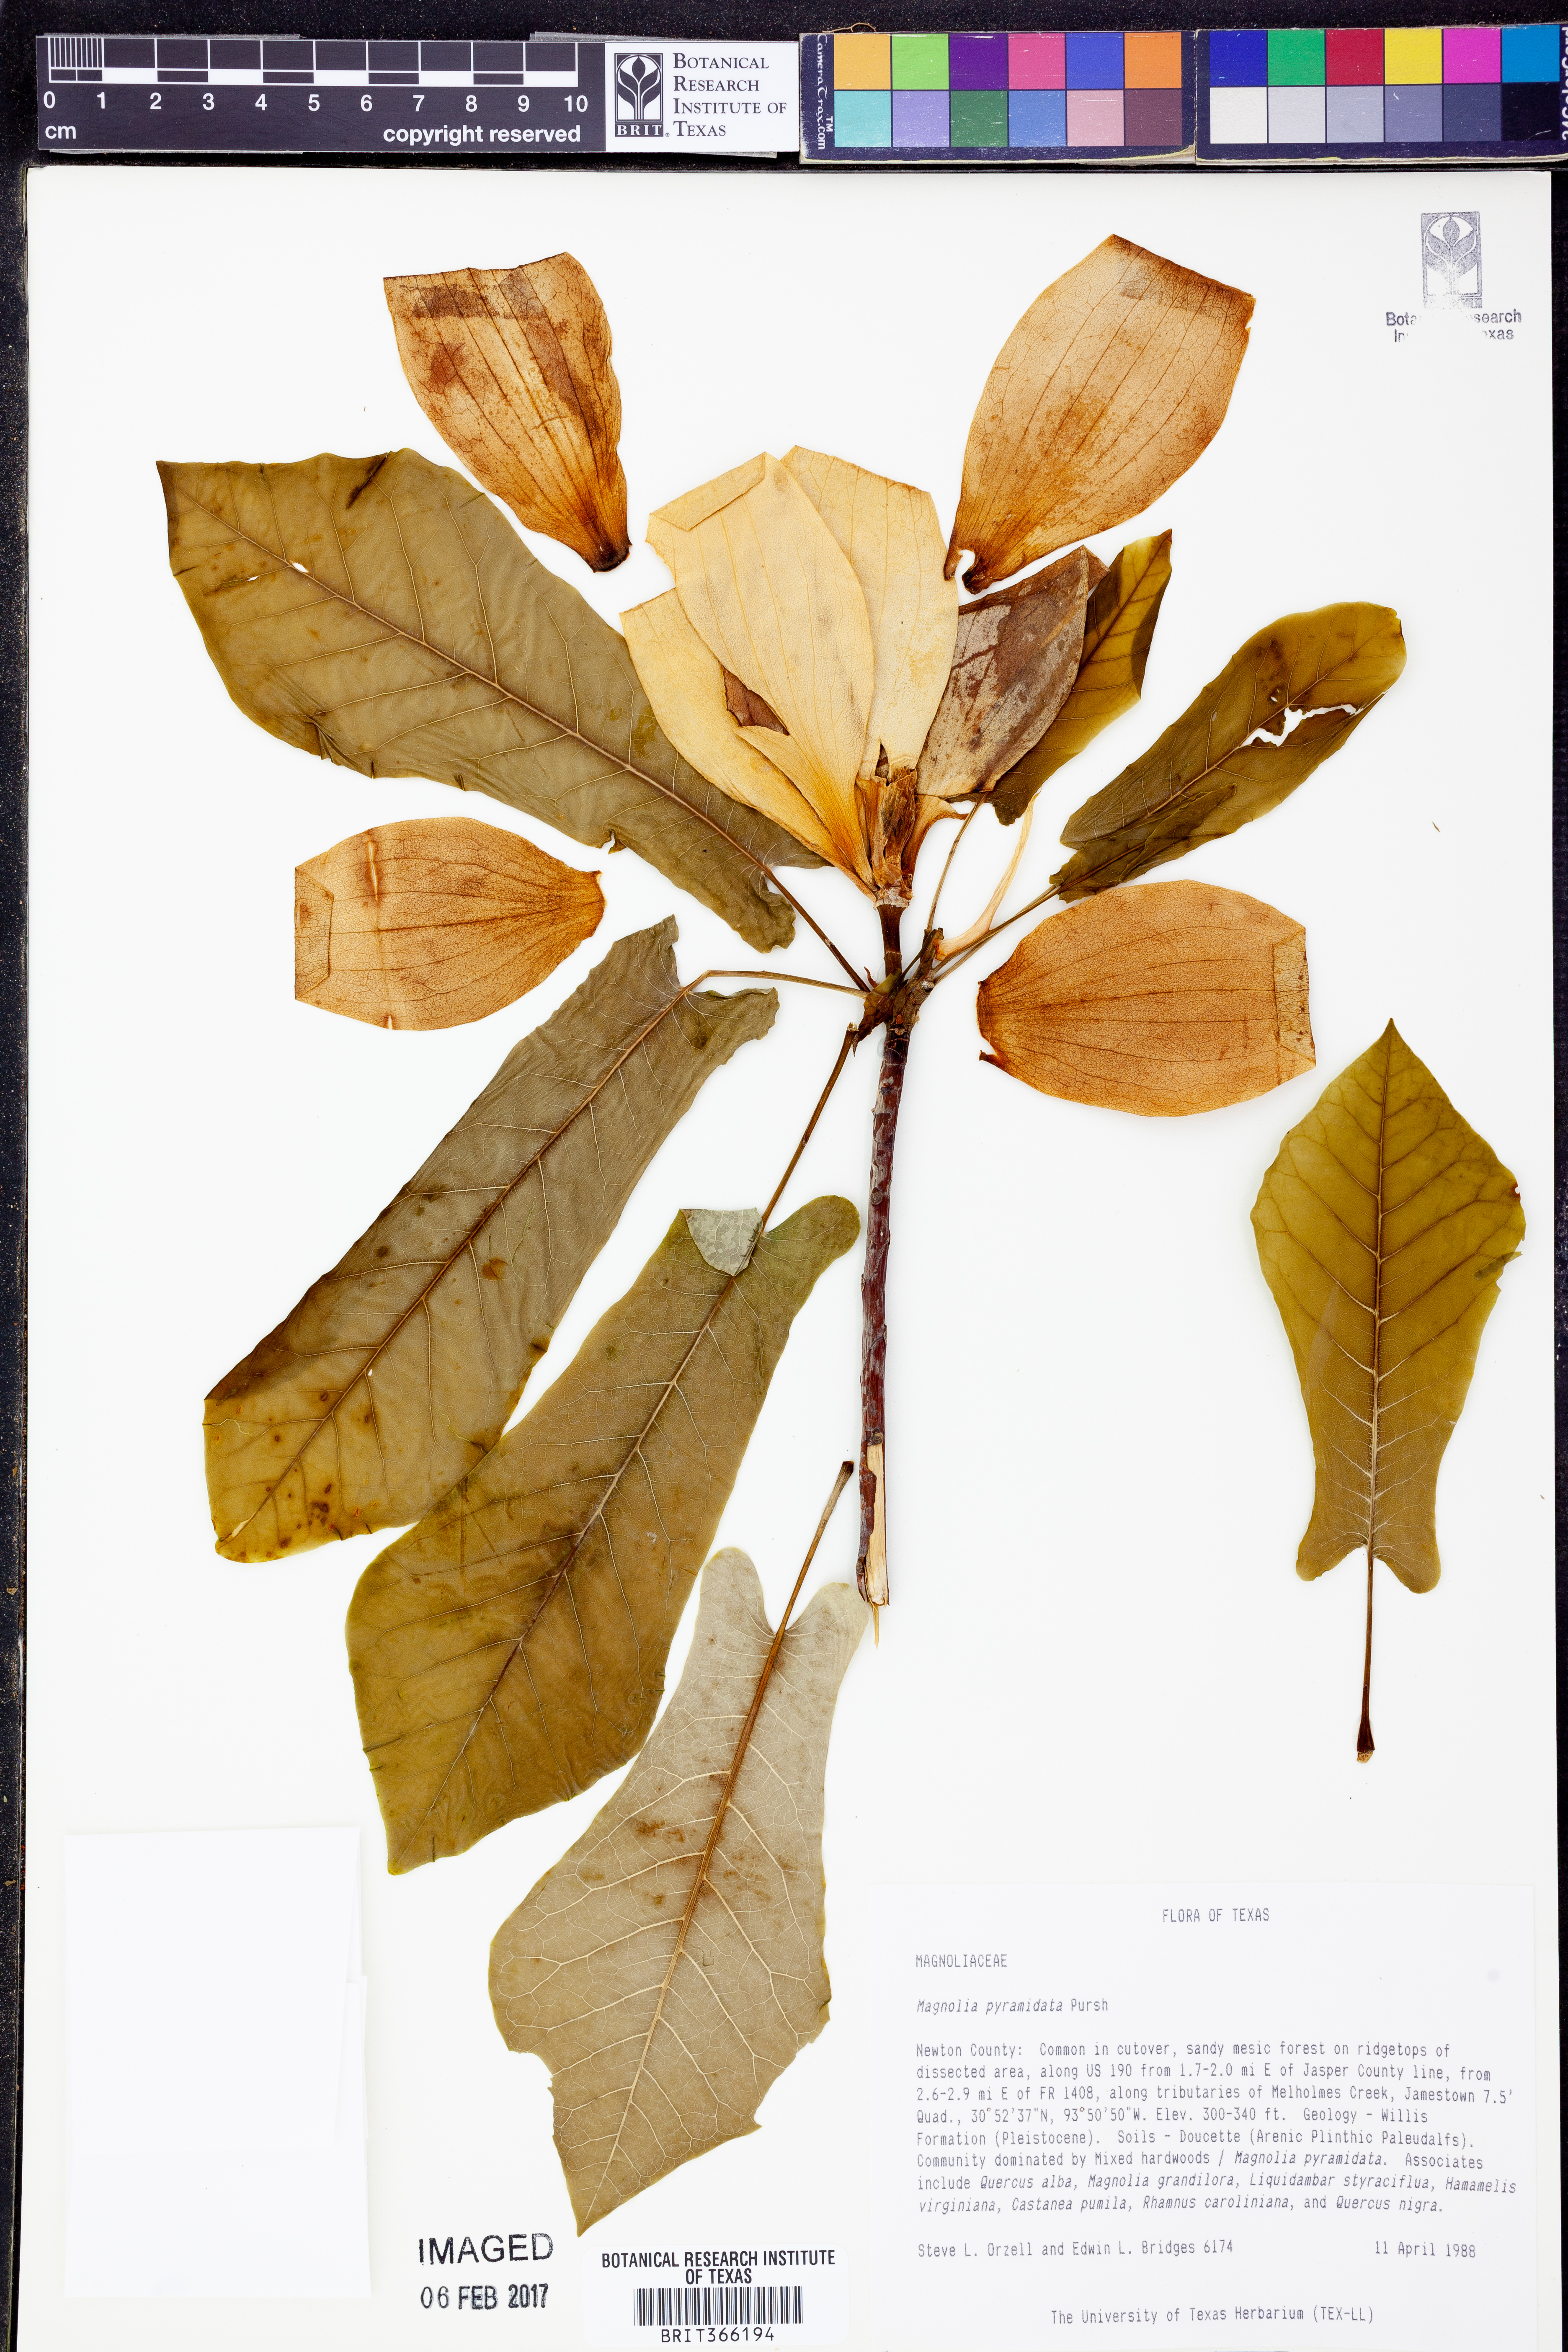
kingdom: Plantae
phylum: Tracheophyta
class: Magnoliopsida
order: Magnoliales
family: Magnoliaceae
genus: Magnolia
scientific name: Magnolia fraseri
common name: Fraser's magnolia
